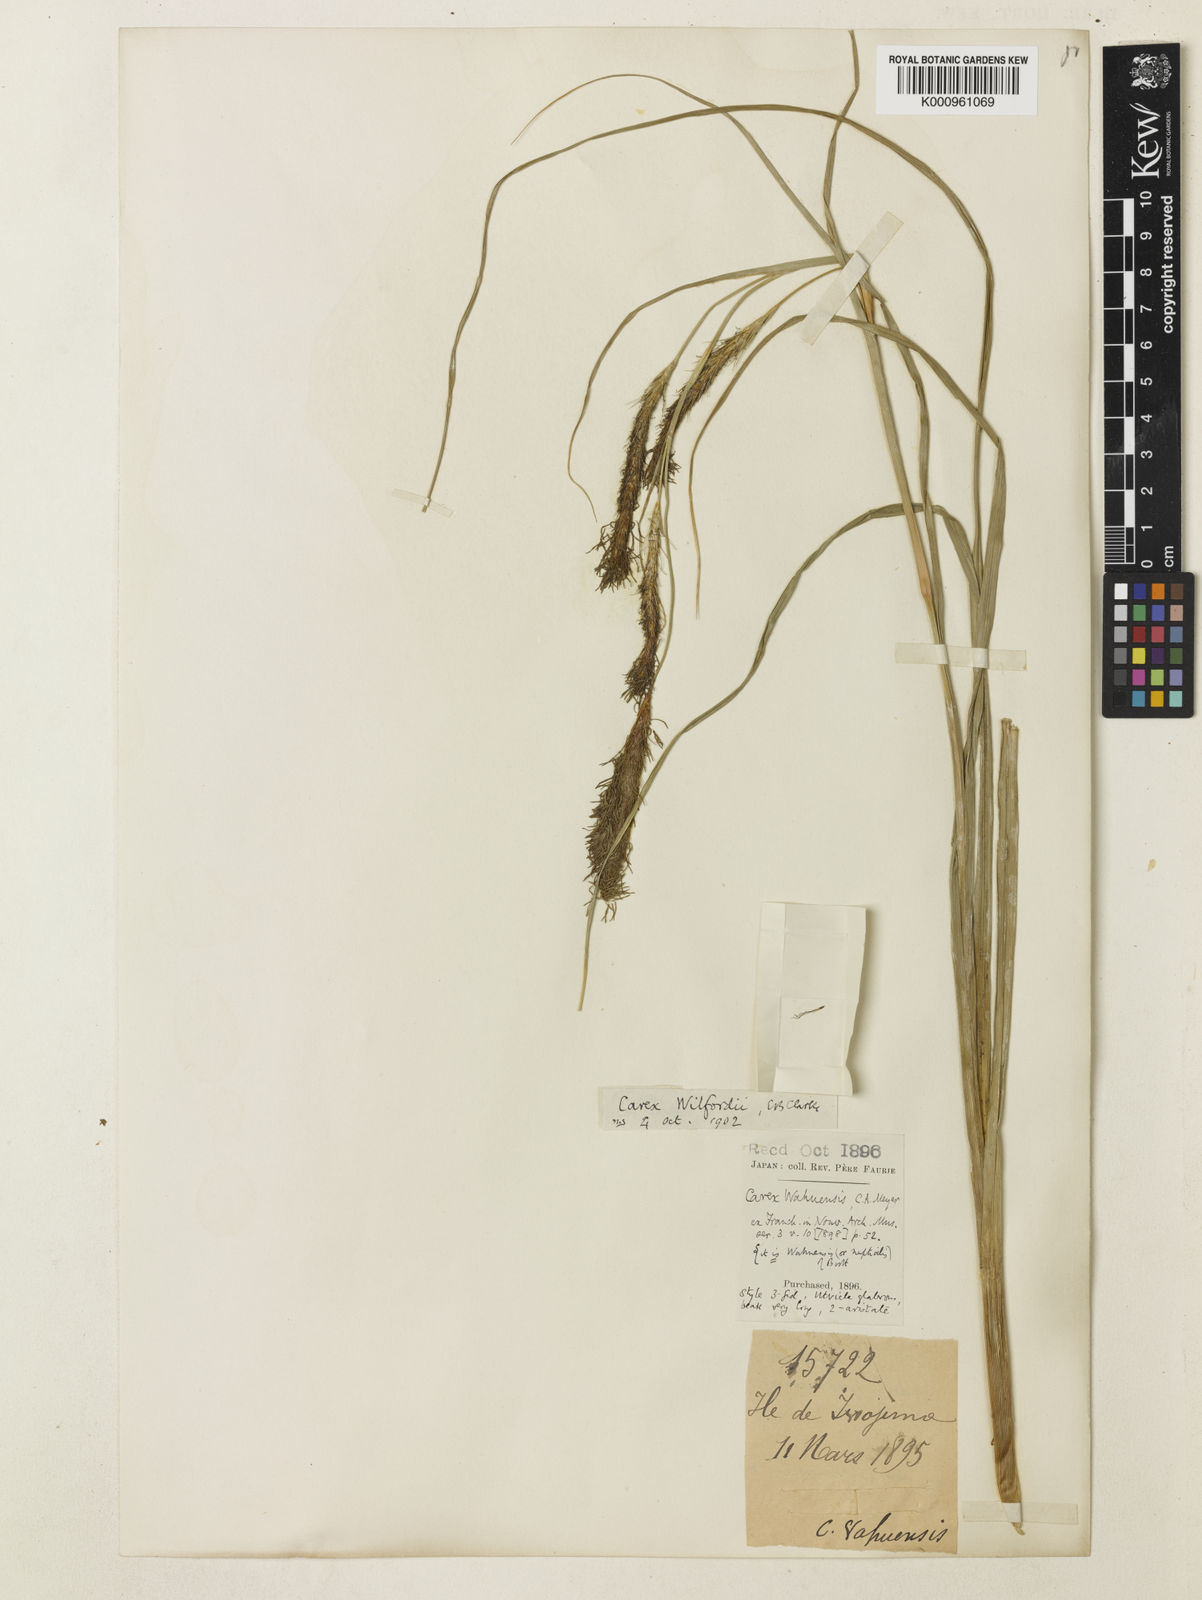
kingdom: Plantae
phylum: Tracheophyta
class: Liliopsida
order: Poales
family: Cyperaceae
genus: Carex
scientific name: Carex wahuensis
